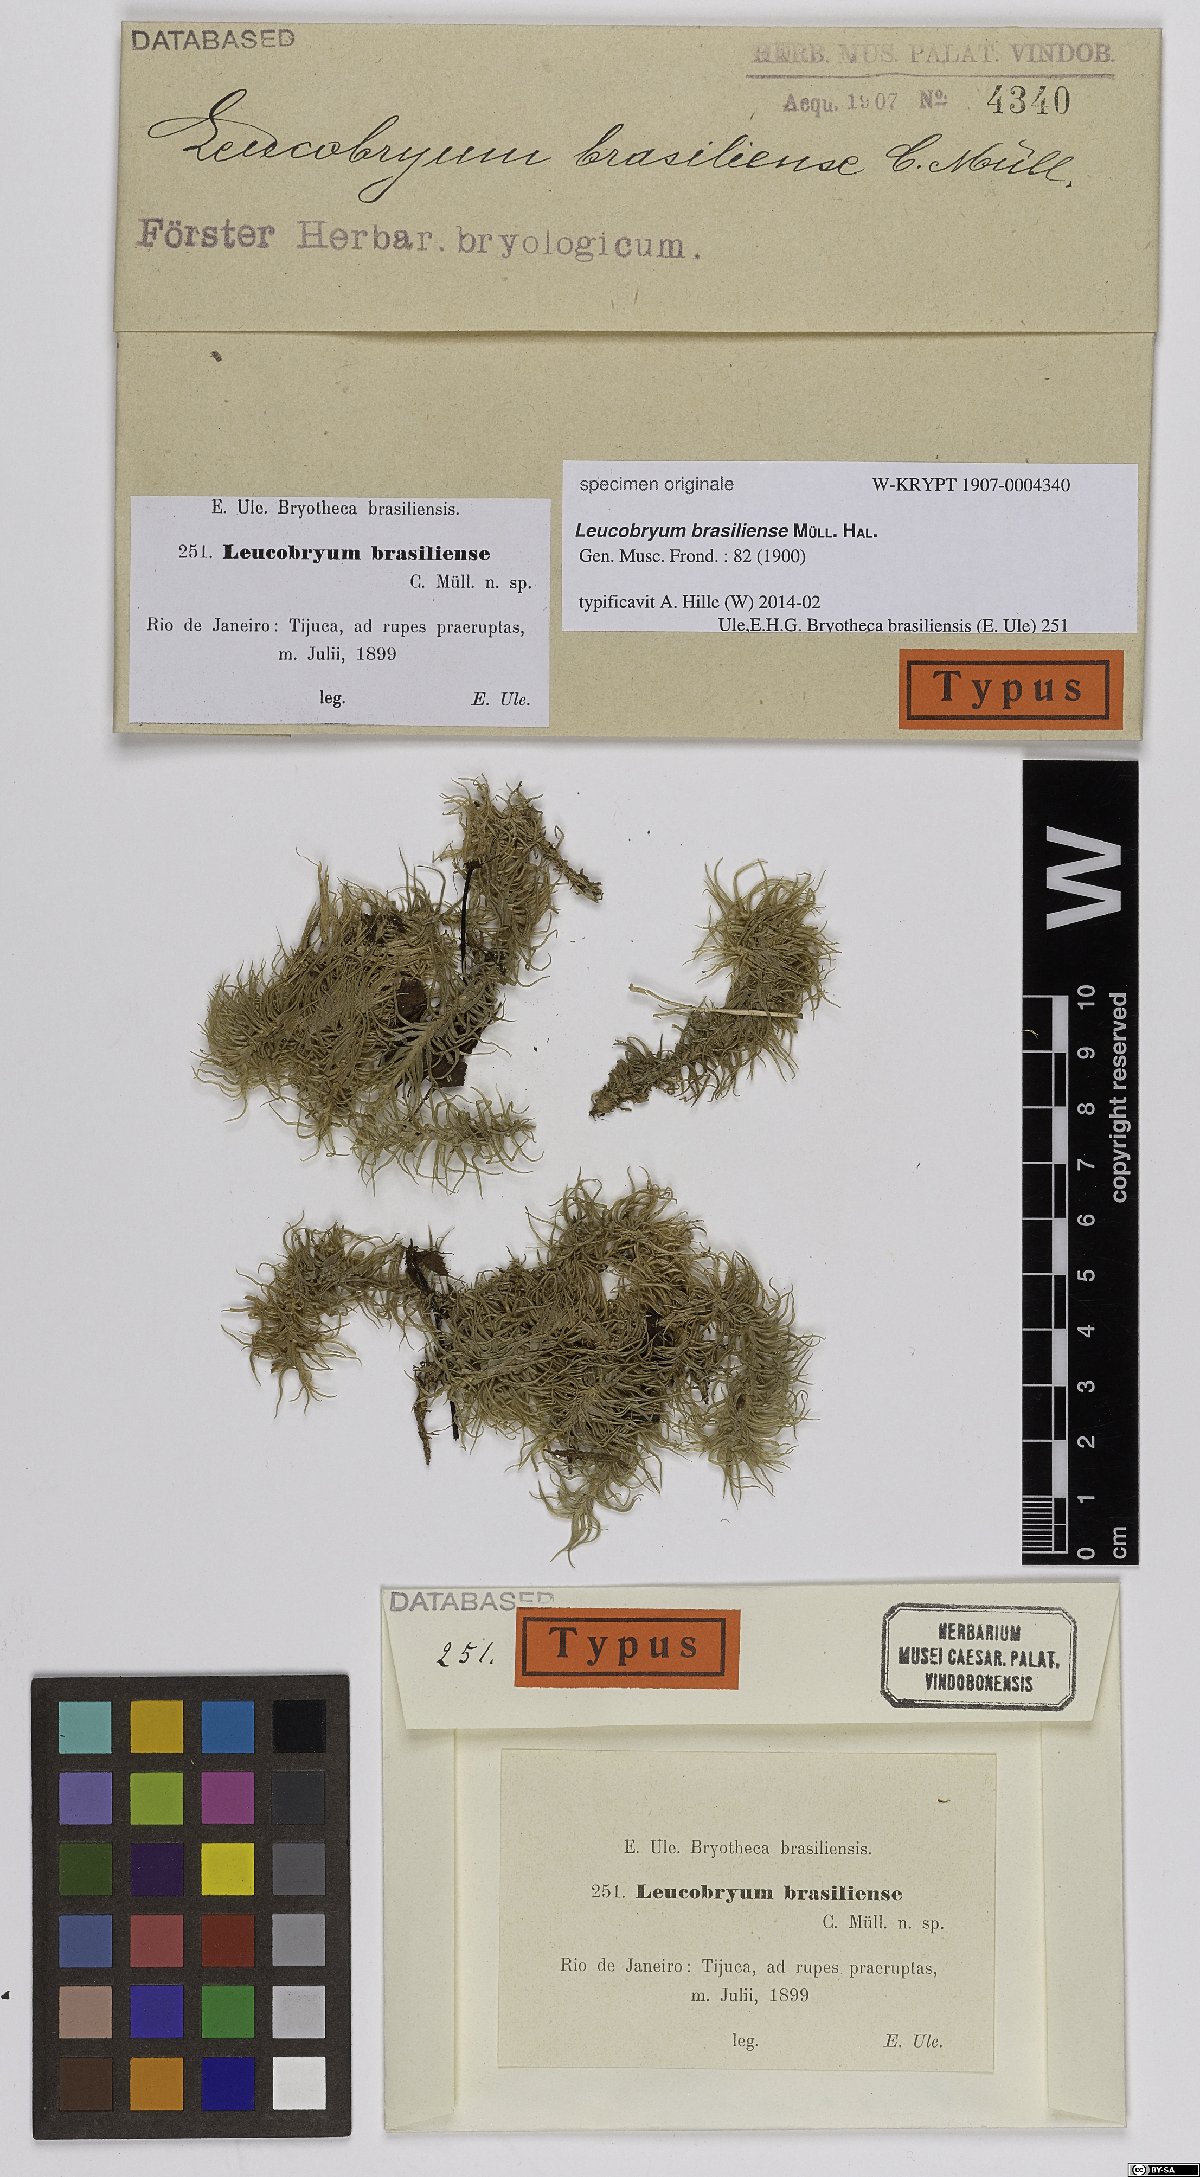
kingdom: Plantae
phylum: Bryophyta
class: Bryopsida
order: Dicranales
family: Leucobryaceae
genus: Leucobryum
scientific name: Leucobryum giganteum
